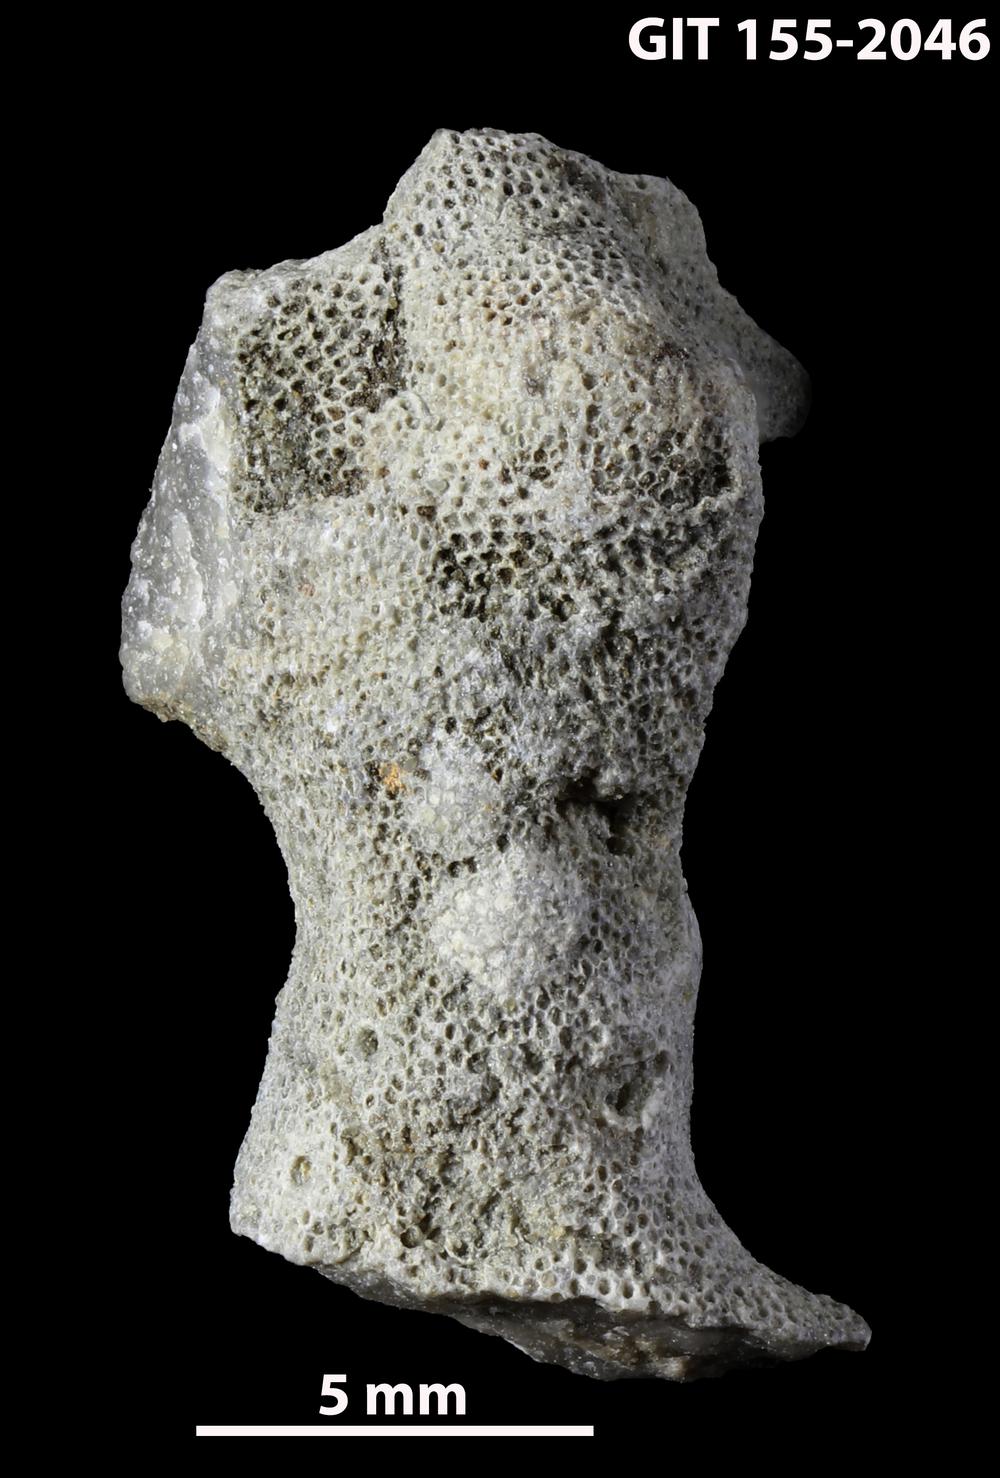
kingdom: Animalia
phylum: Bryozoa
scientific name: Bryozoa
